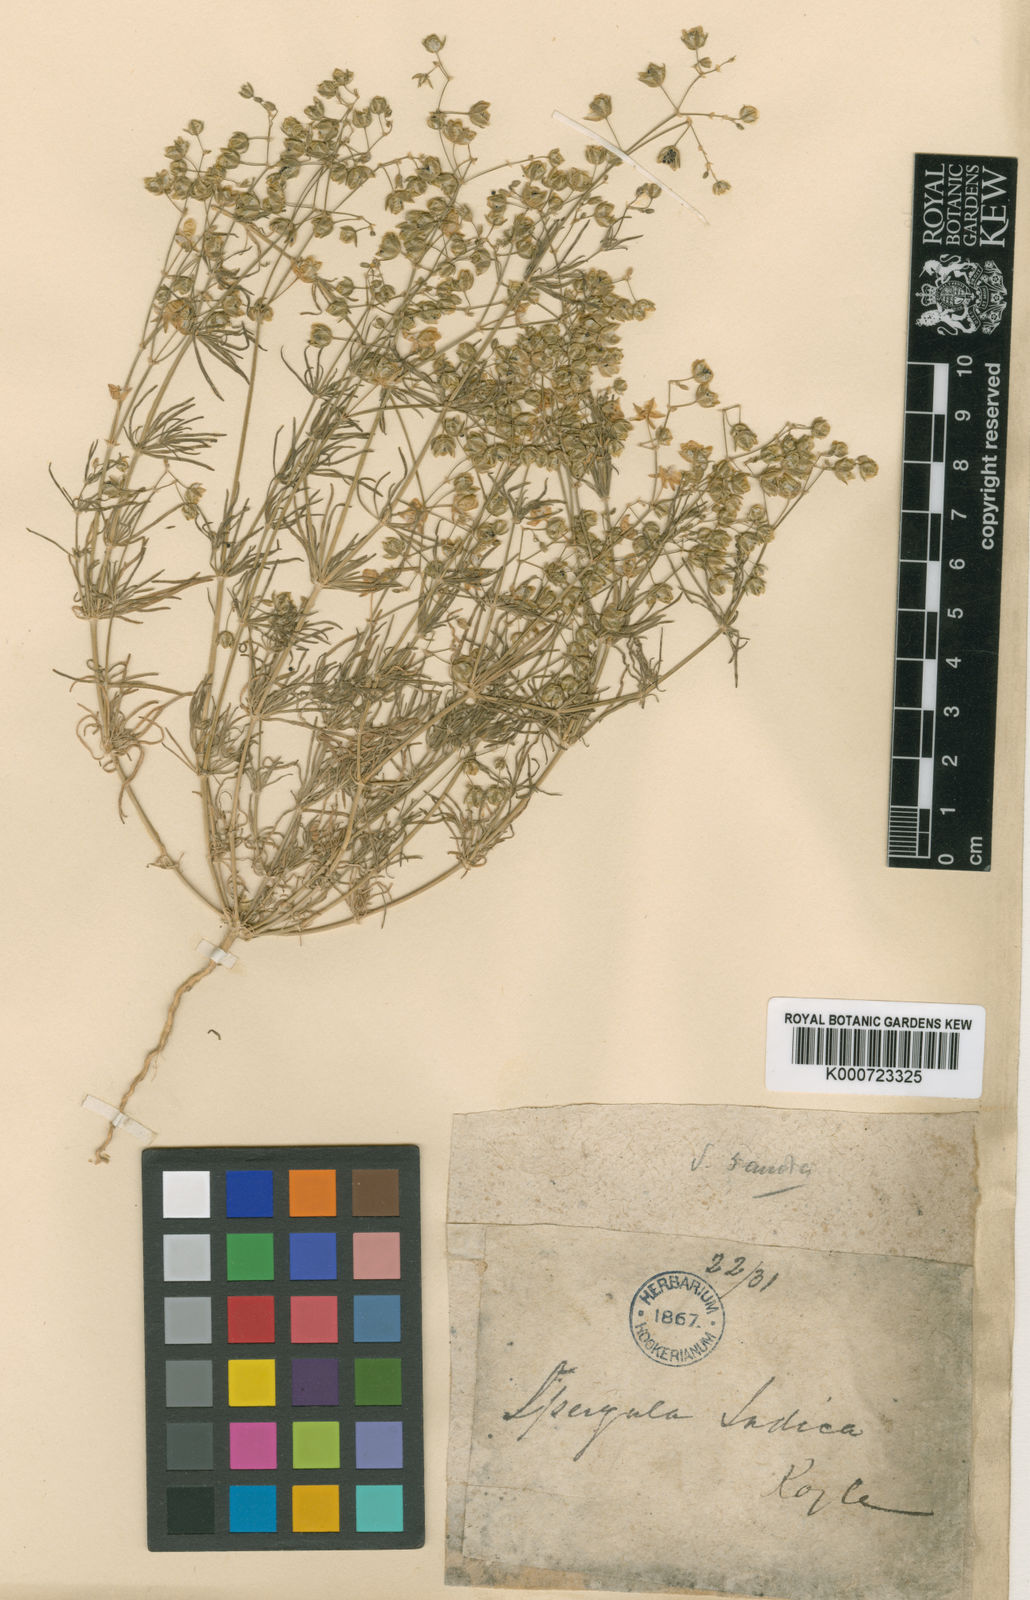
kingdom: Plantae
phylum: Tracheophyta
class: Magnoliopsida
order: Caryophyllales
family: Caryophyllaceae
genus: Spergularia
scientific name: Spergularia flaccida
